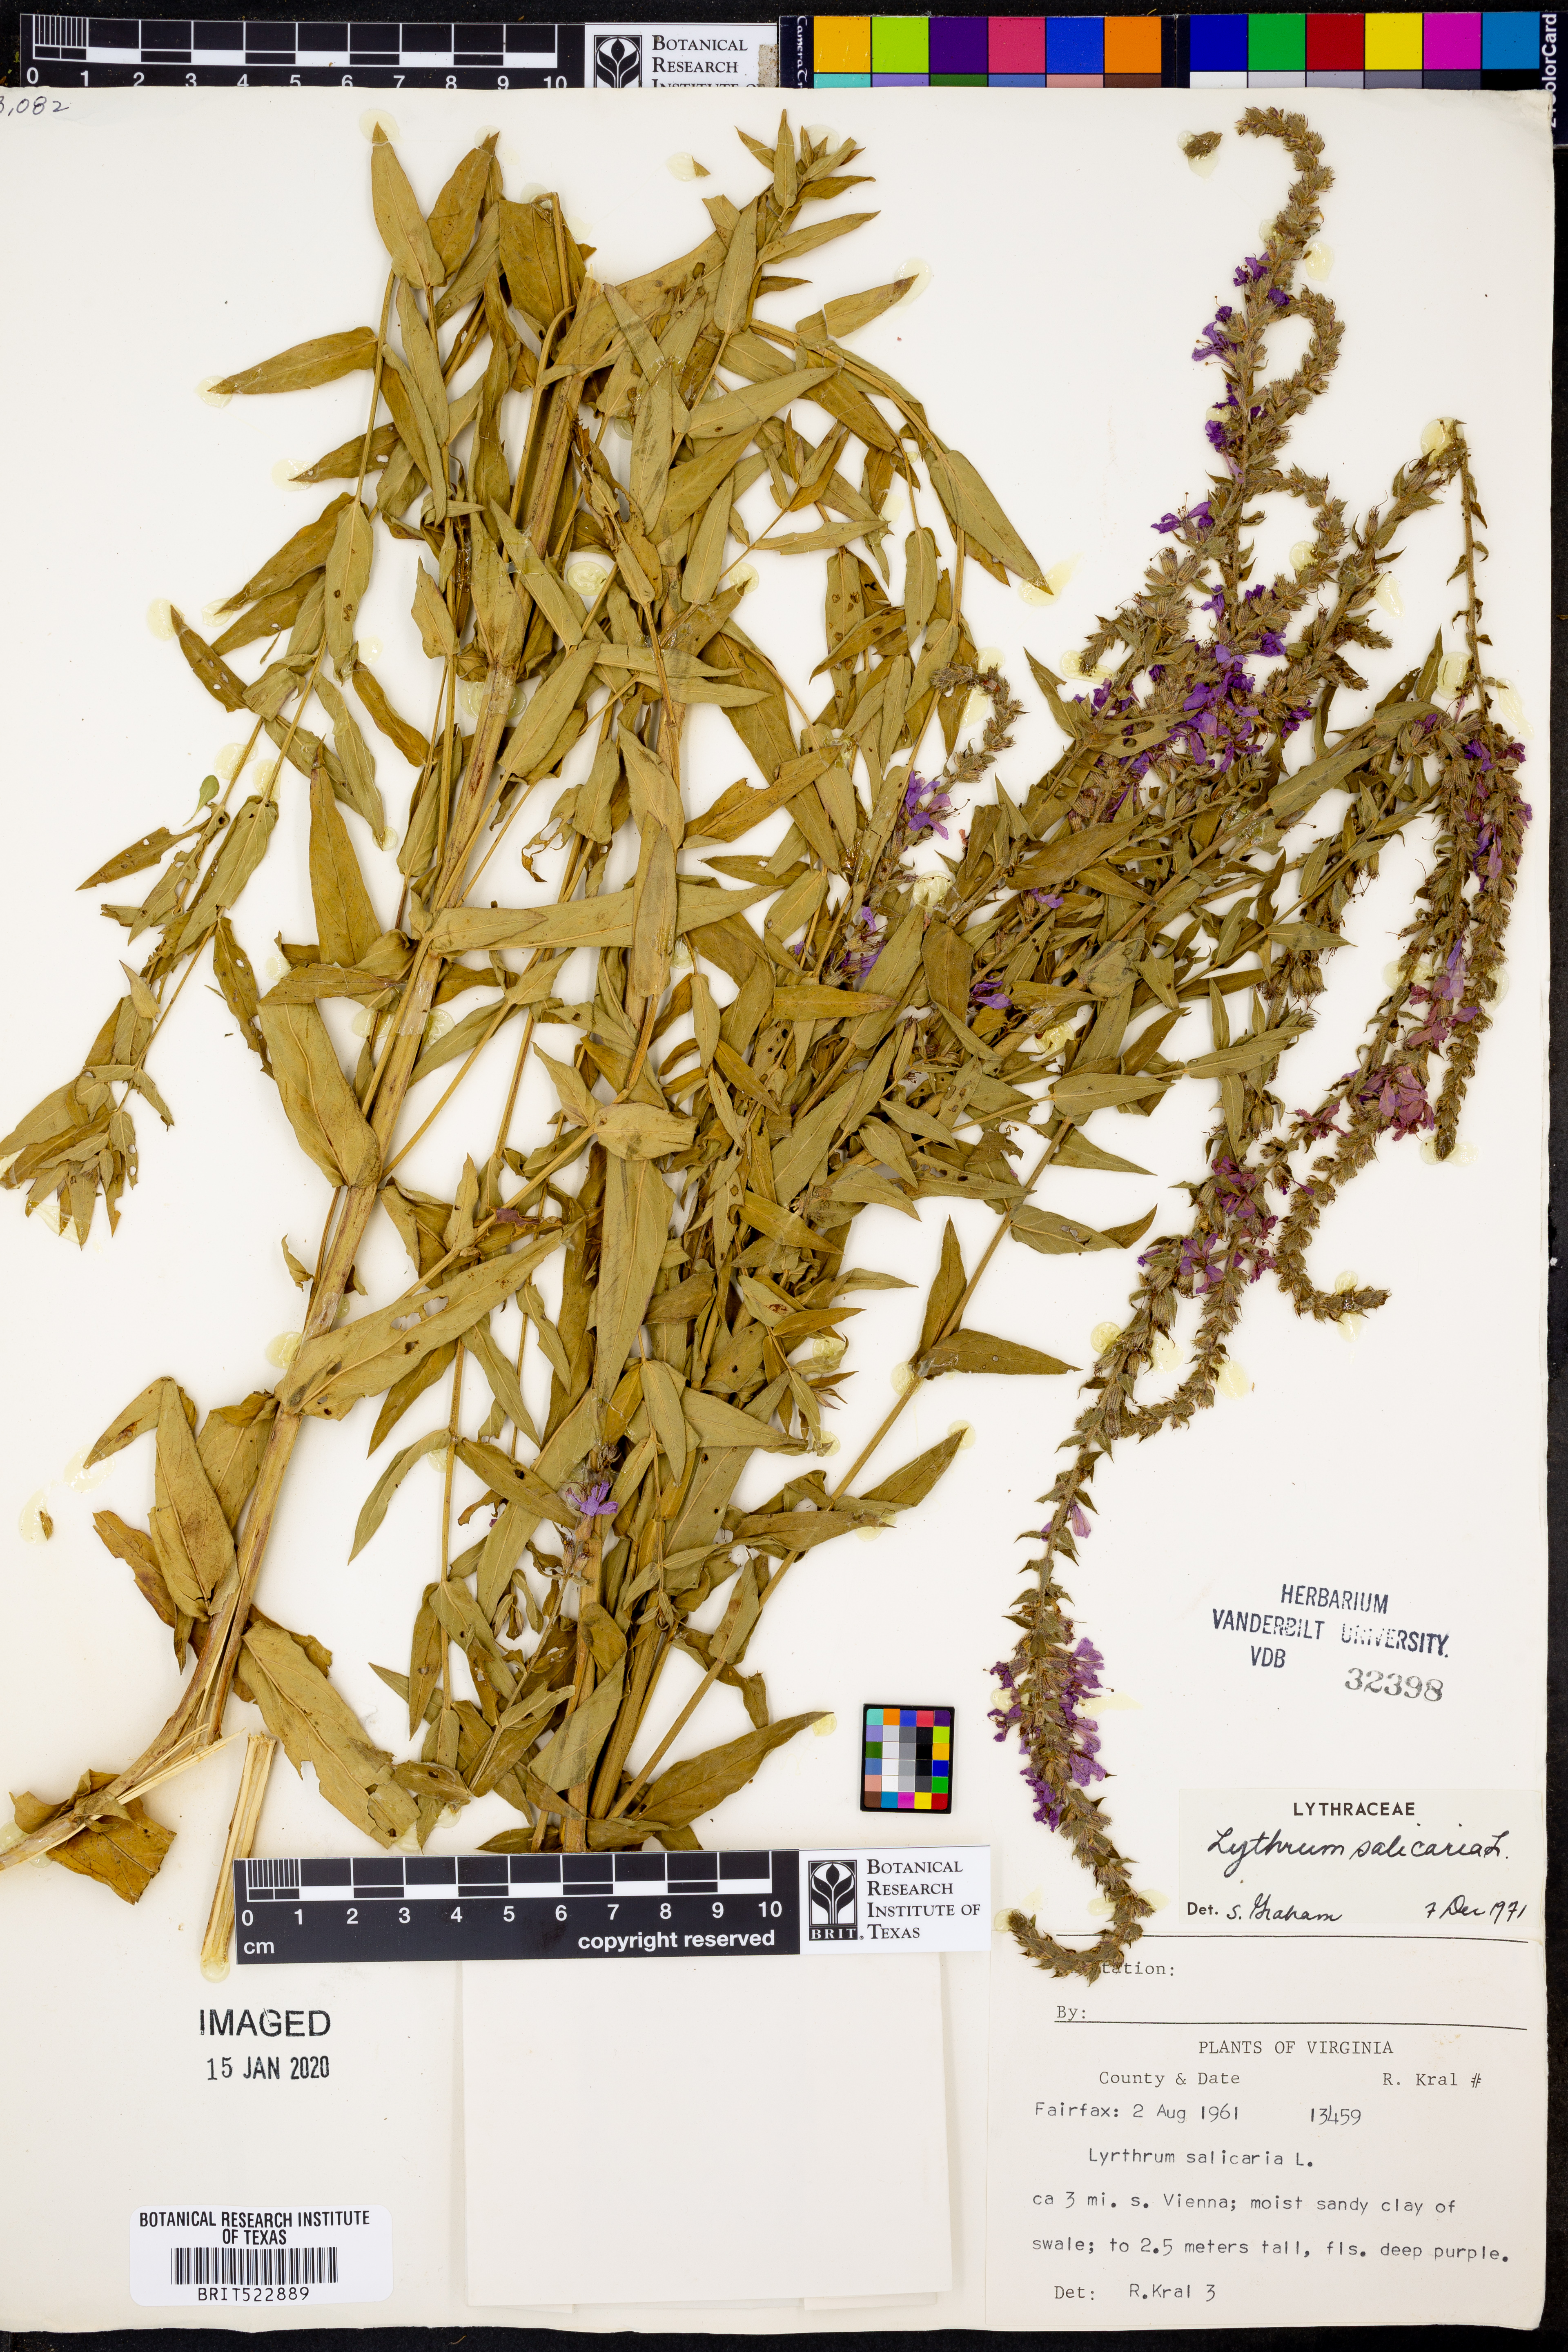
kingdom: Plantae
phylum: Tracheophyta
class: Magnoliopsida
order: Myrtales
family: Lythraceae
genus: Lythrum
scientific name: Lythrum salicaria
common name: Purple loosestrife
